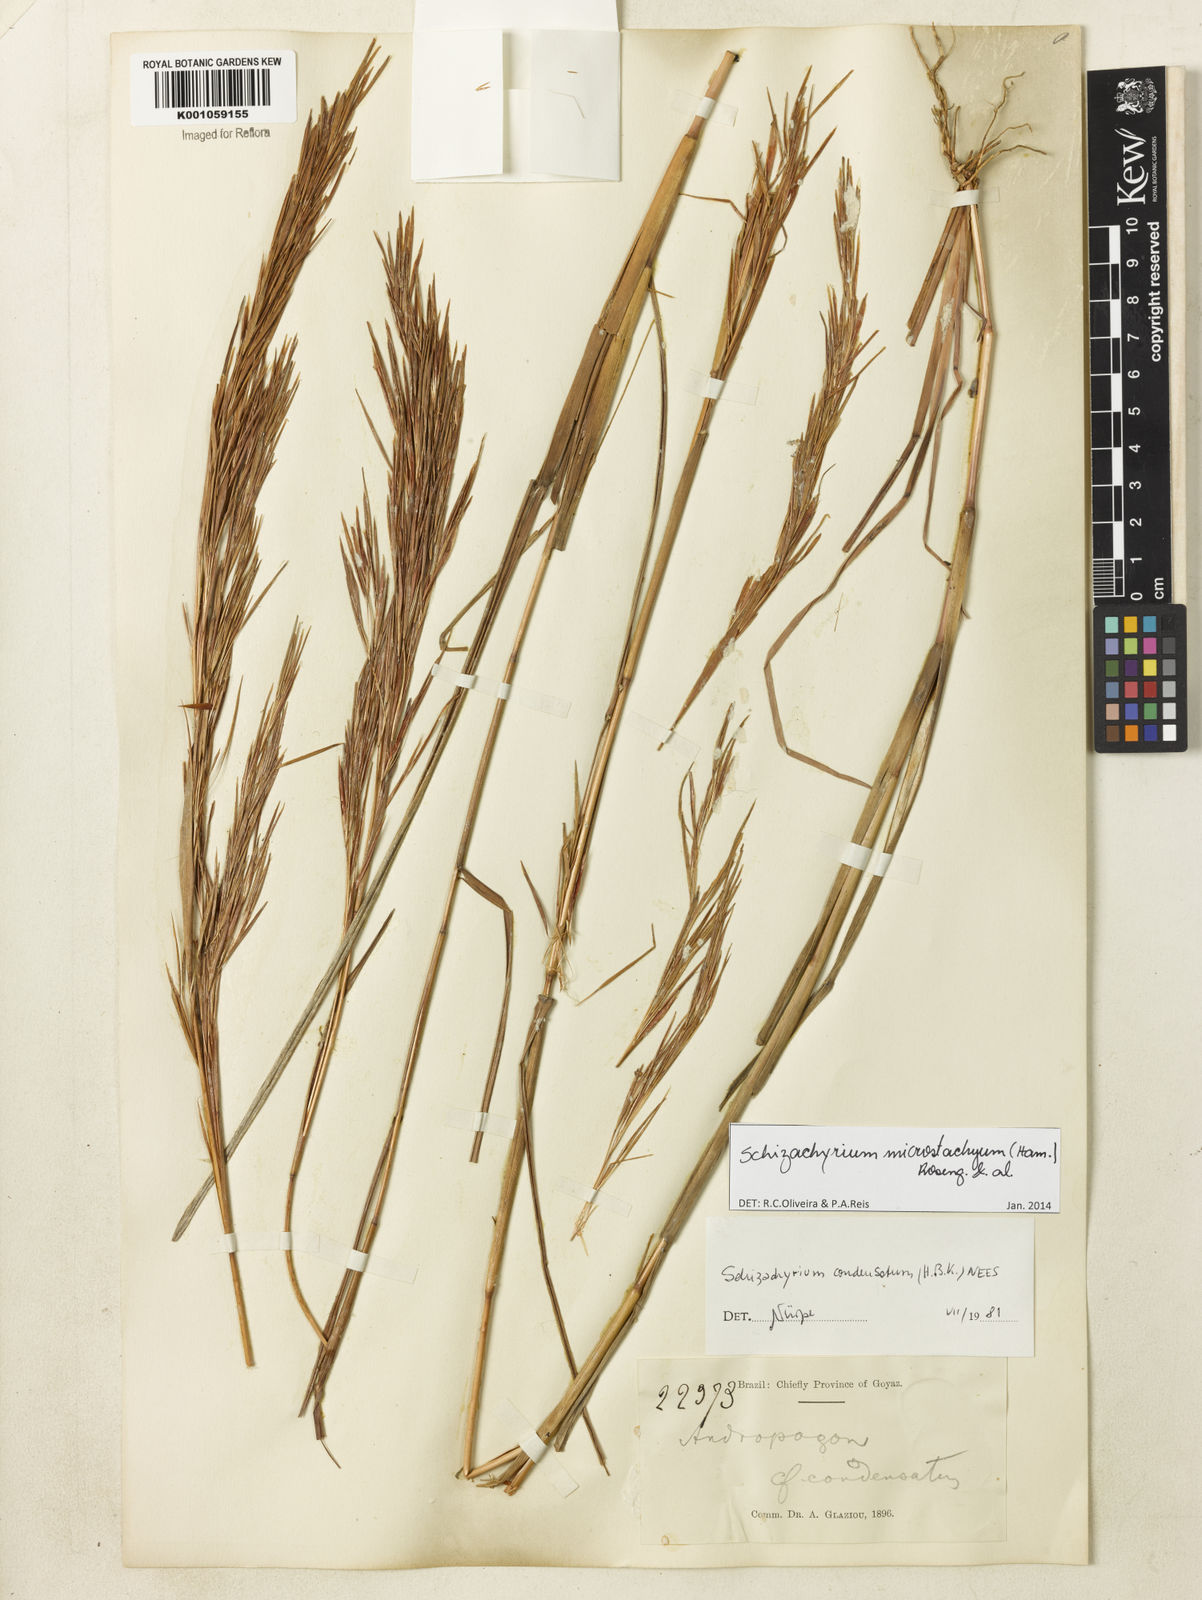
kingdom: Plantae
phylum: Tracheophyta
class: Liliopsida
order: Poales
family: Poaceae
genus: Schizachyrium
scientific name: Schizachyrium
